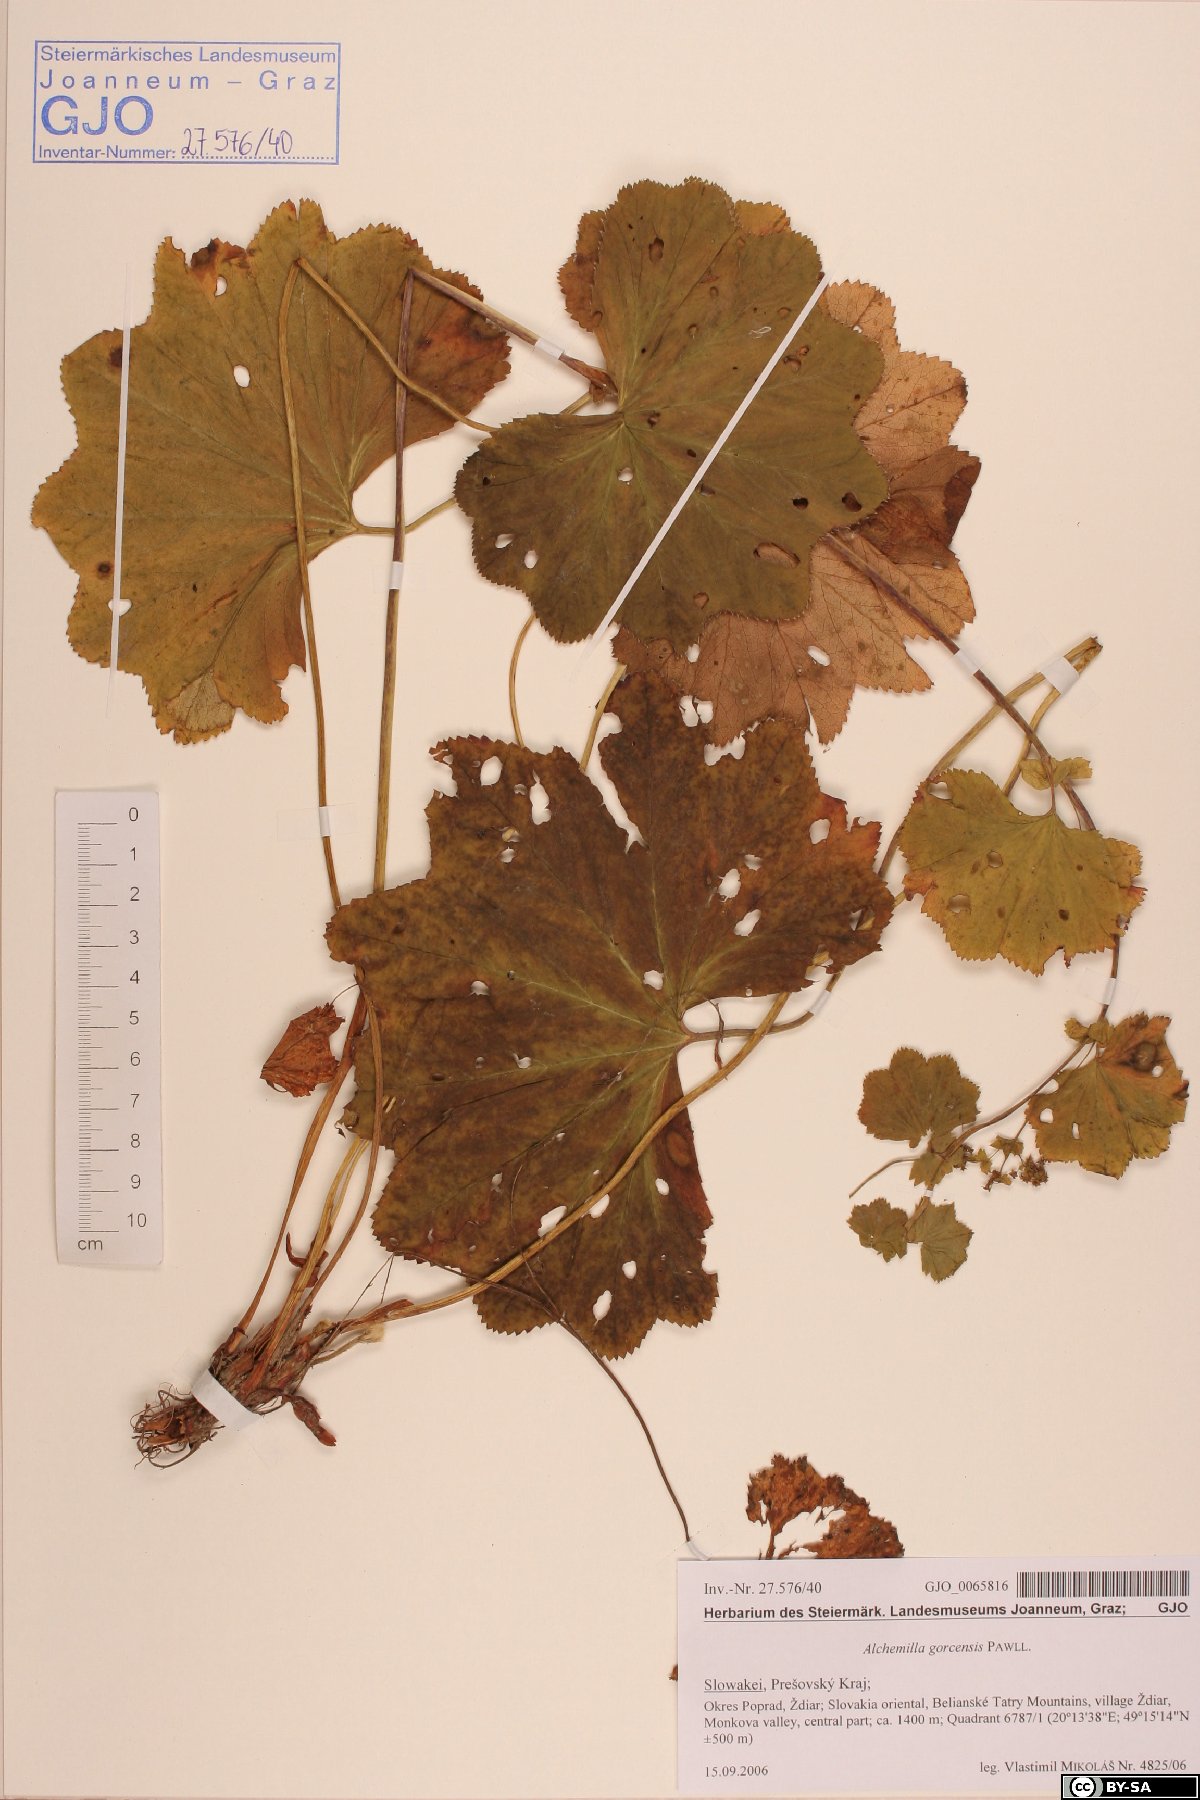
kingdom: Plantae
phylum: Tracheophyta
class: Magnoliopsida
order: Rosales
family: Rosaceae
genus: Alchemilla
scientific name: Alchemilla gorcensis
